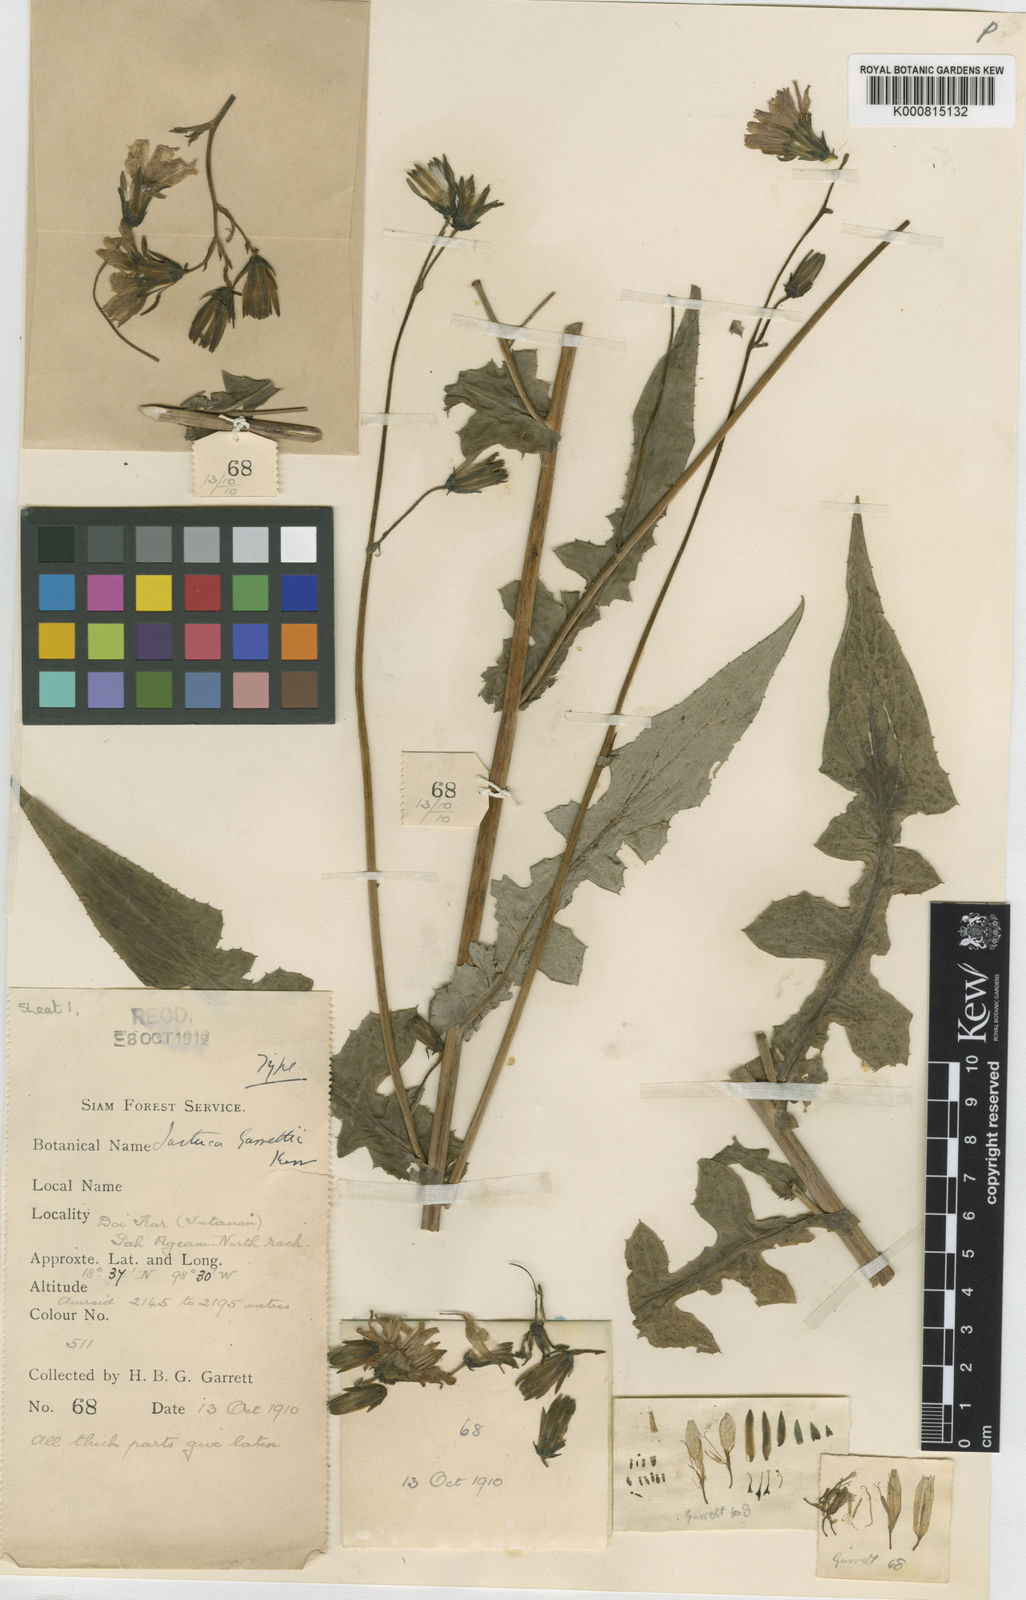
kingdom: Plantae
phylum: Tracheophyta
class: Magnoliopsida
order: Asterales
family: Asteraceae
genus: Lactuca
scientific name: Lactuca garrettii
